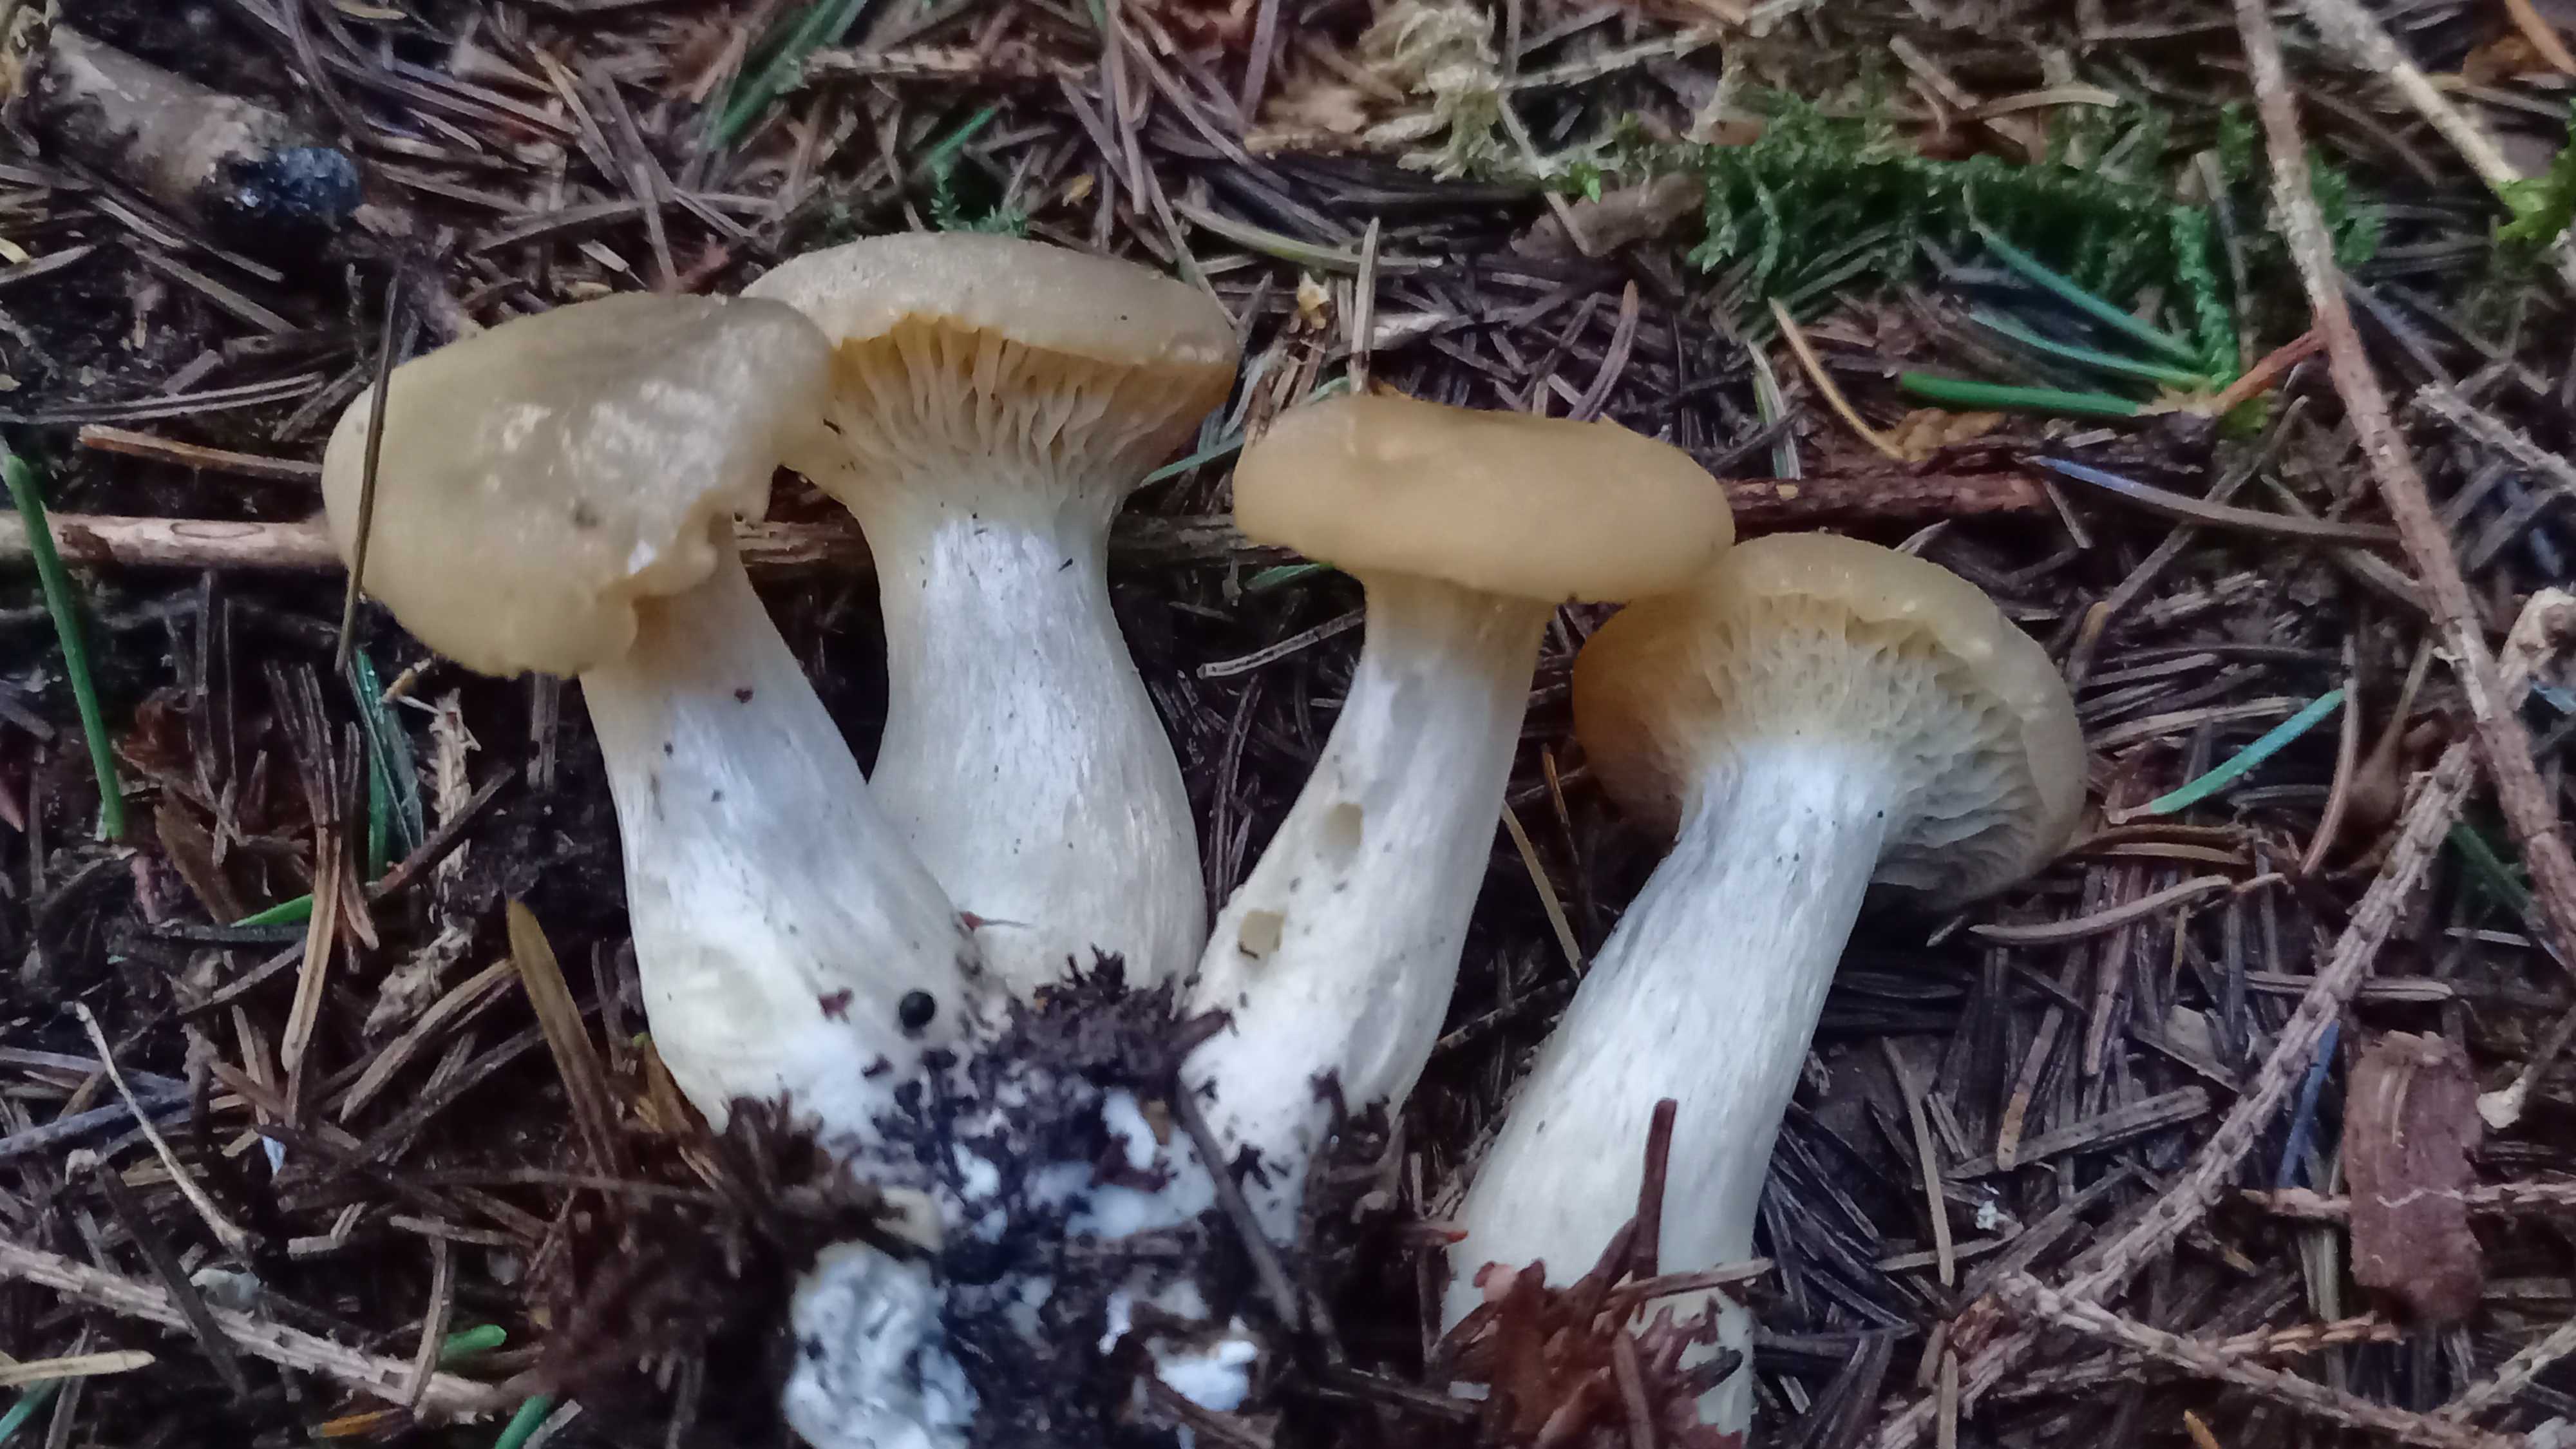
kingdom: Fungi
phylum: Basidiomycota
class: Agaricomycetes
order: Agaricales
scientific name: Agaricales
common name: champignonordenen
